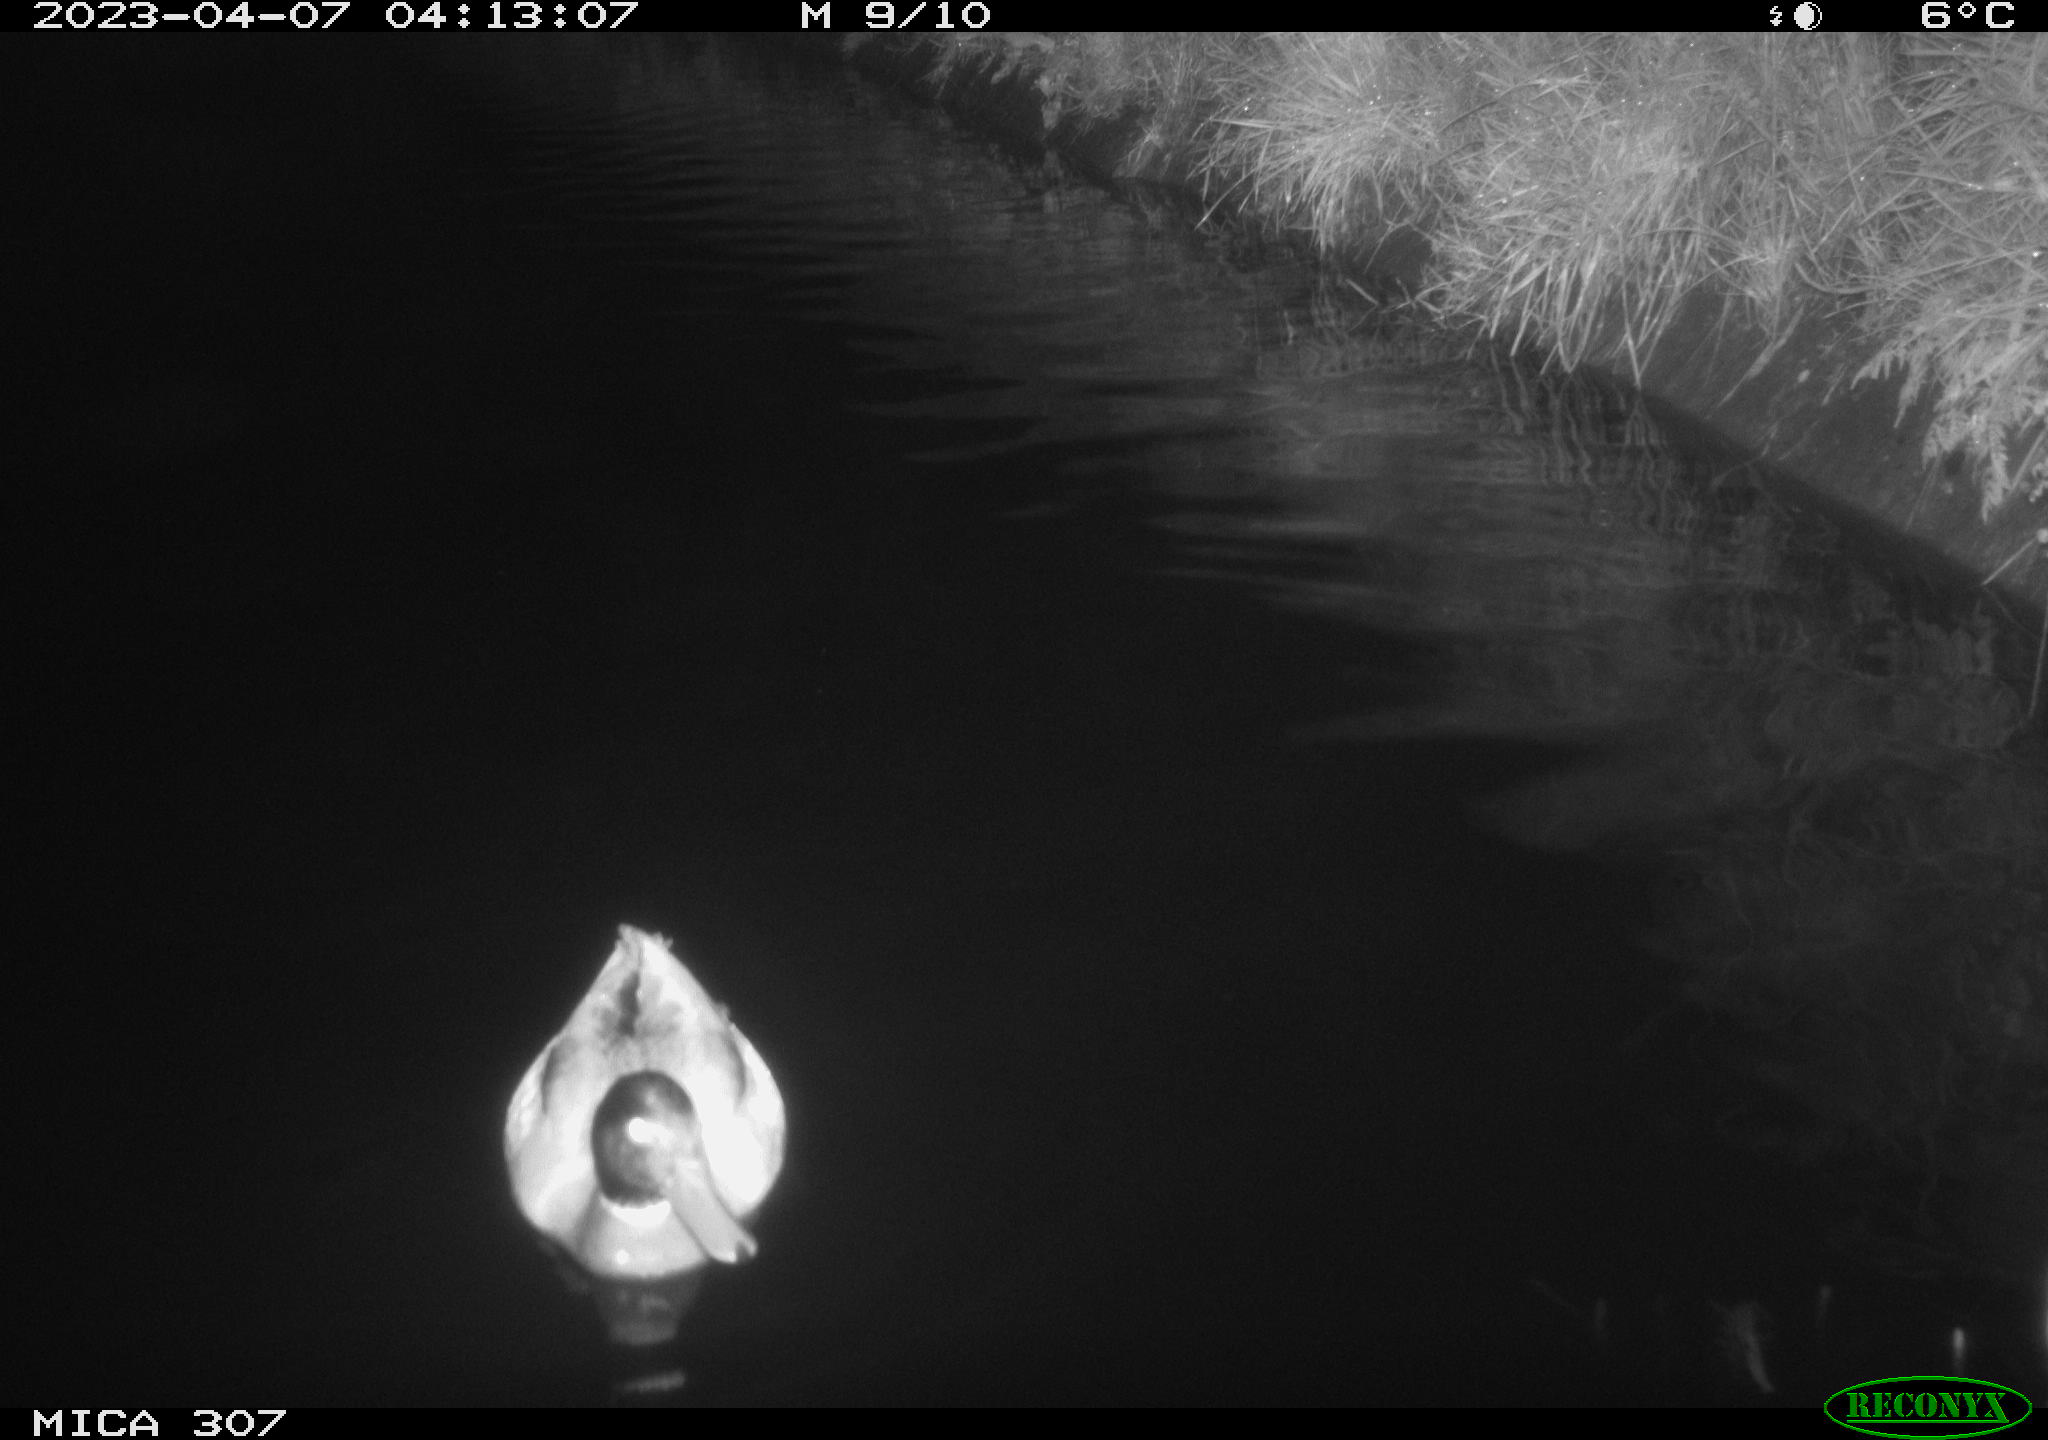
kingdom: Animalia
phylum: Chordata
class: Aves
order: Anseriformes
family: Anatidae
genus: Anas
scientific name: Anas
